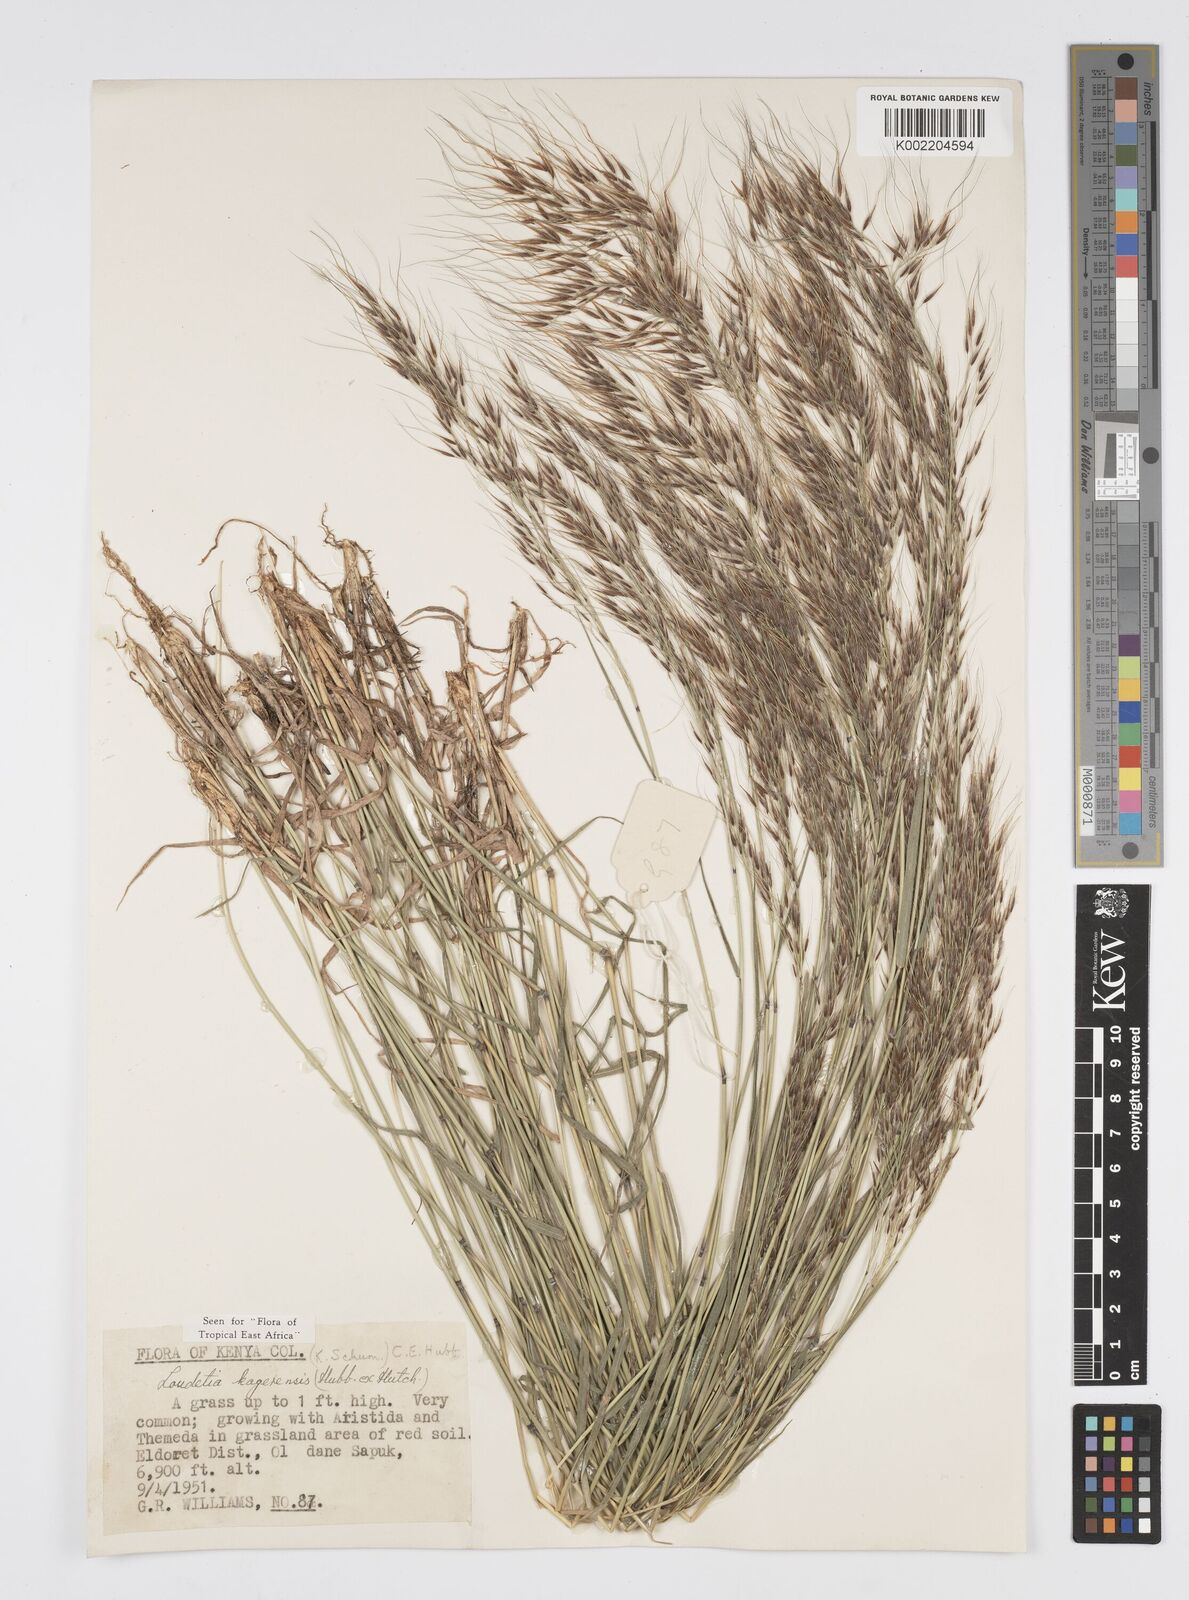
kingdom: Plantae
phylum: Tracheophyta
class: Liliopsida
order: Poales
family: Poaceae
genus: Loudetia
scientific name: Loudetia kagerensis
